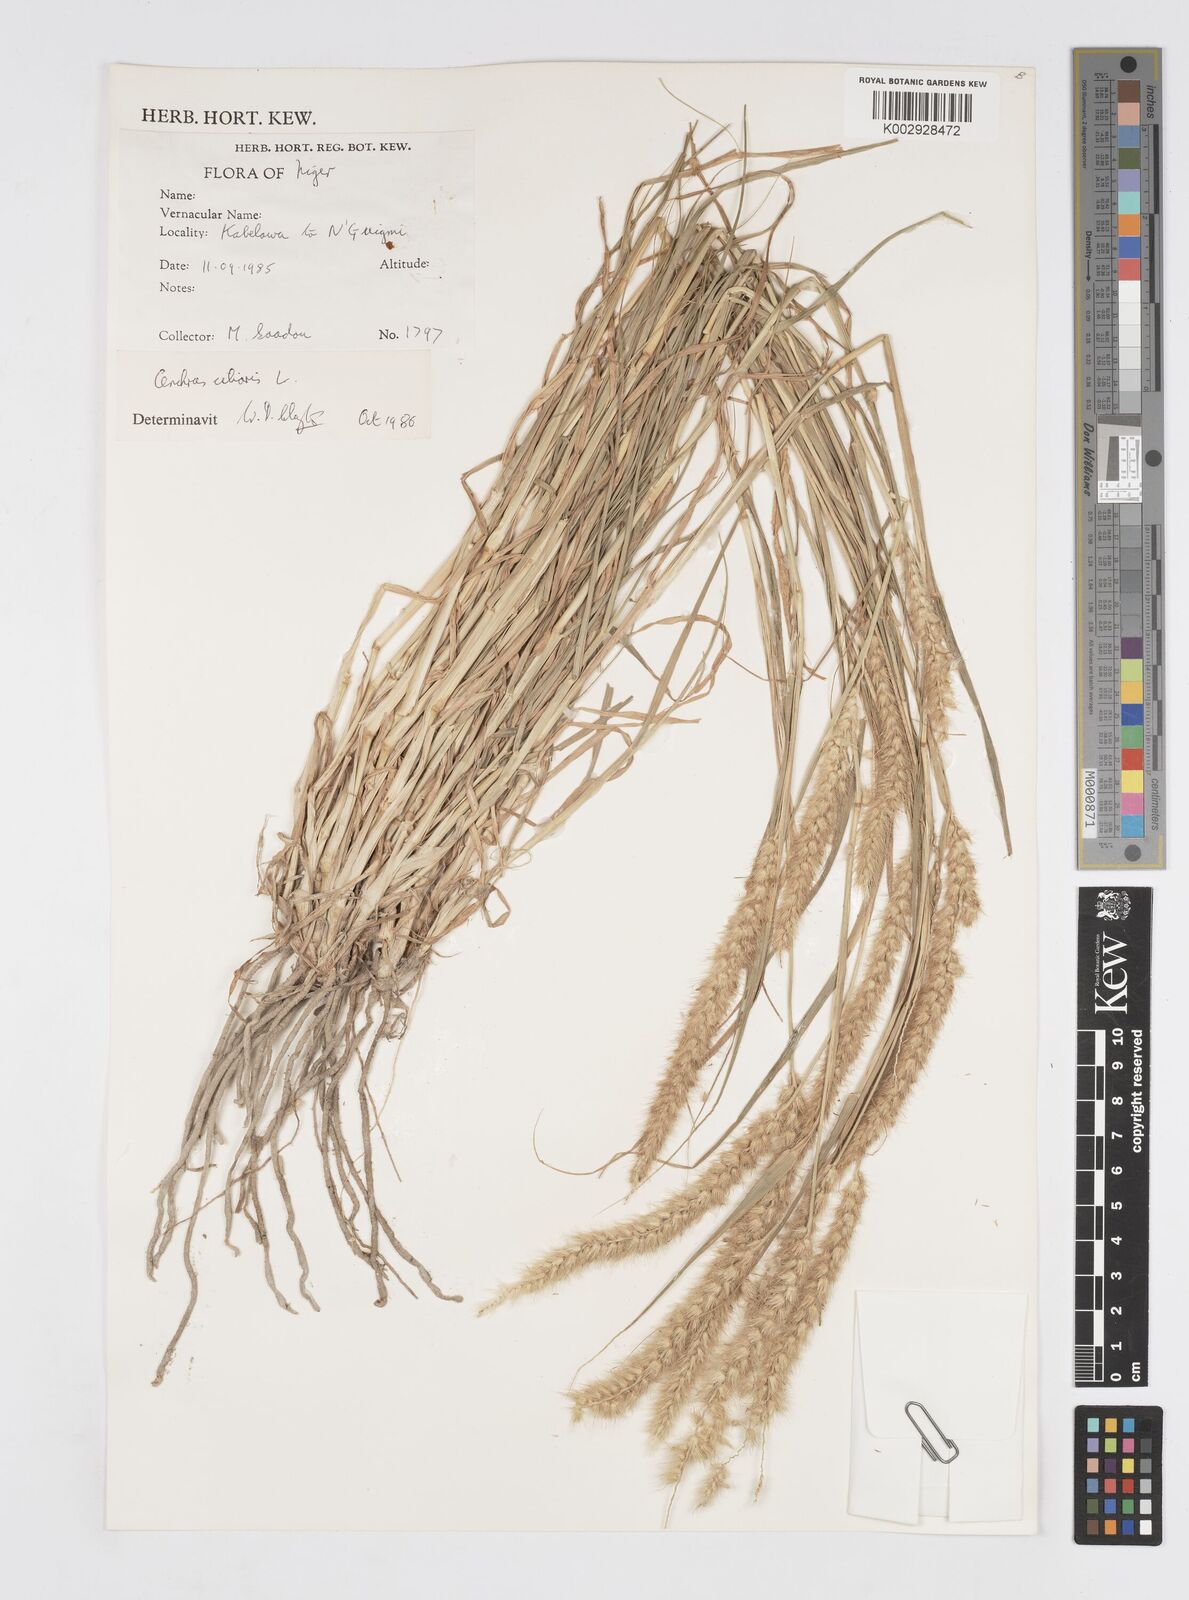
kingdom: Plantae
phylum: Tracheophyta
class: Liliopsida
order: Poales
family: Poaceae
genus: Cenchrus
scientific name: Cenchrus ciliaris
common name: Buffelgrass
